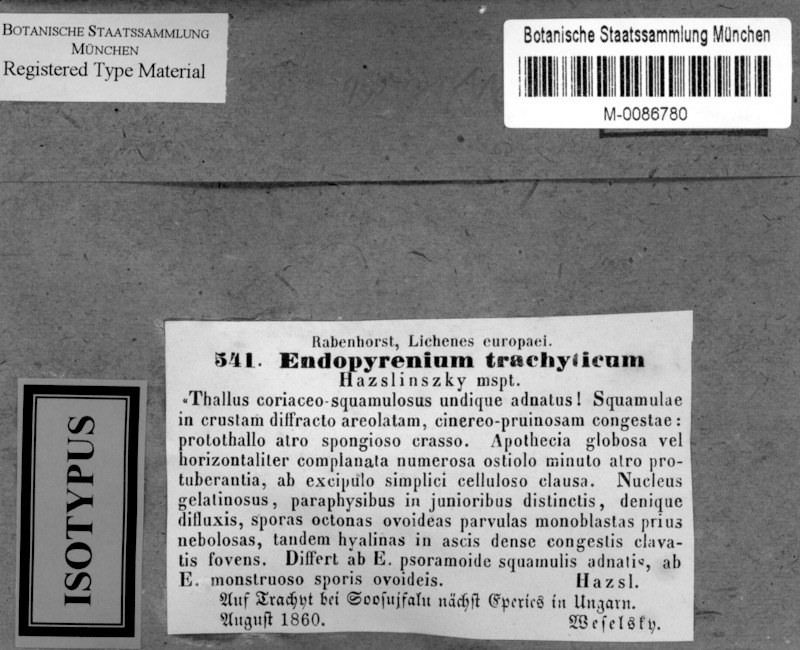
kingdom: Fungi
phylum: Ascomycota
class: Eurotiomycetes
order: Verrucariales
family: Verrucariaceae
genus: Placopyrenium
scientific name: Placopyrenium trachyticum
